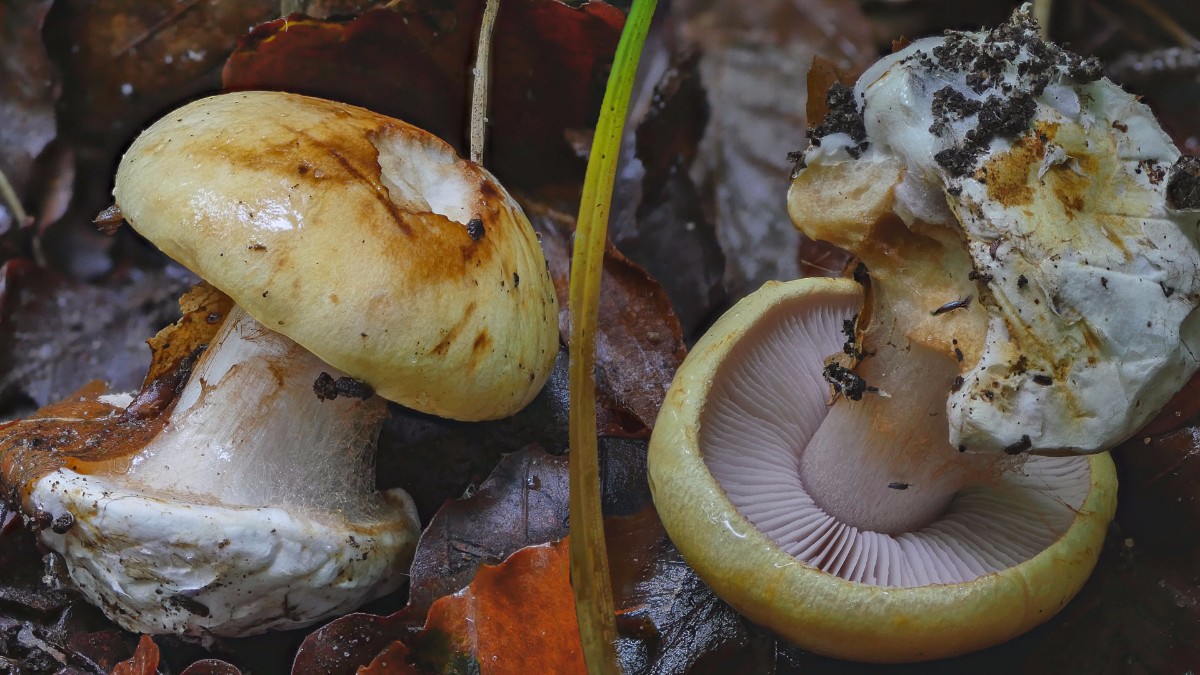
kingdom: Fungi
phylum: Basidiomycota
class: Agaricomycetes
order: Agaricales
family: Cortinariaceae
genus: Calonarius
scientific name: Calonarius callochrous
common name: lillabladet slørhat
